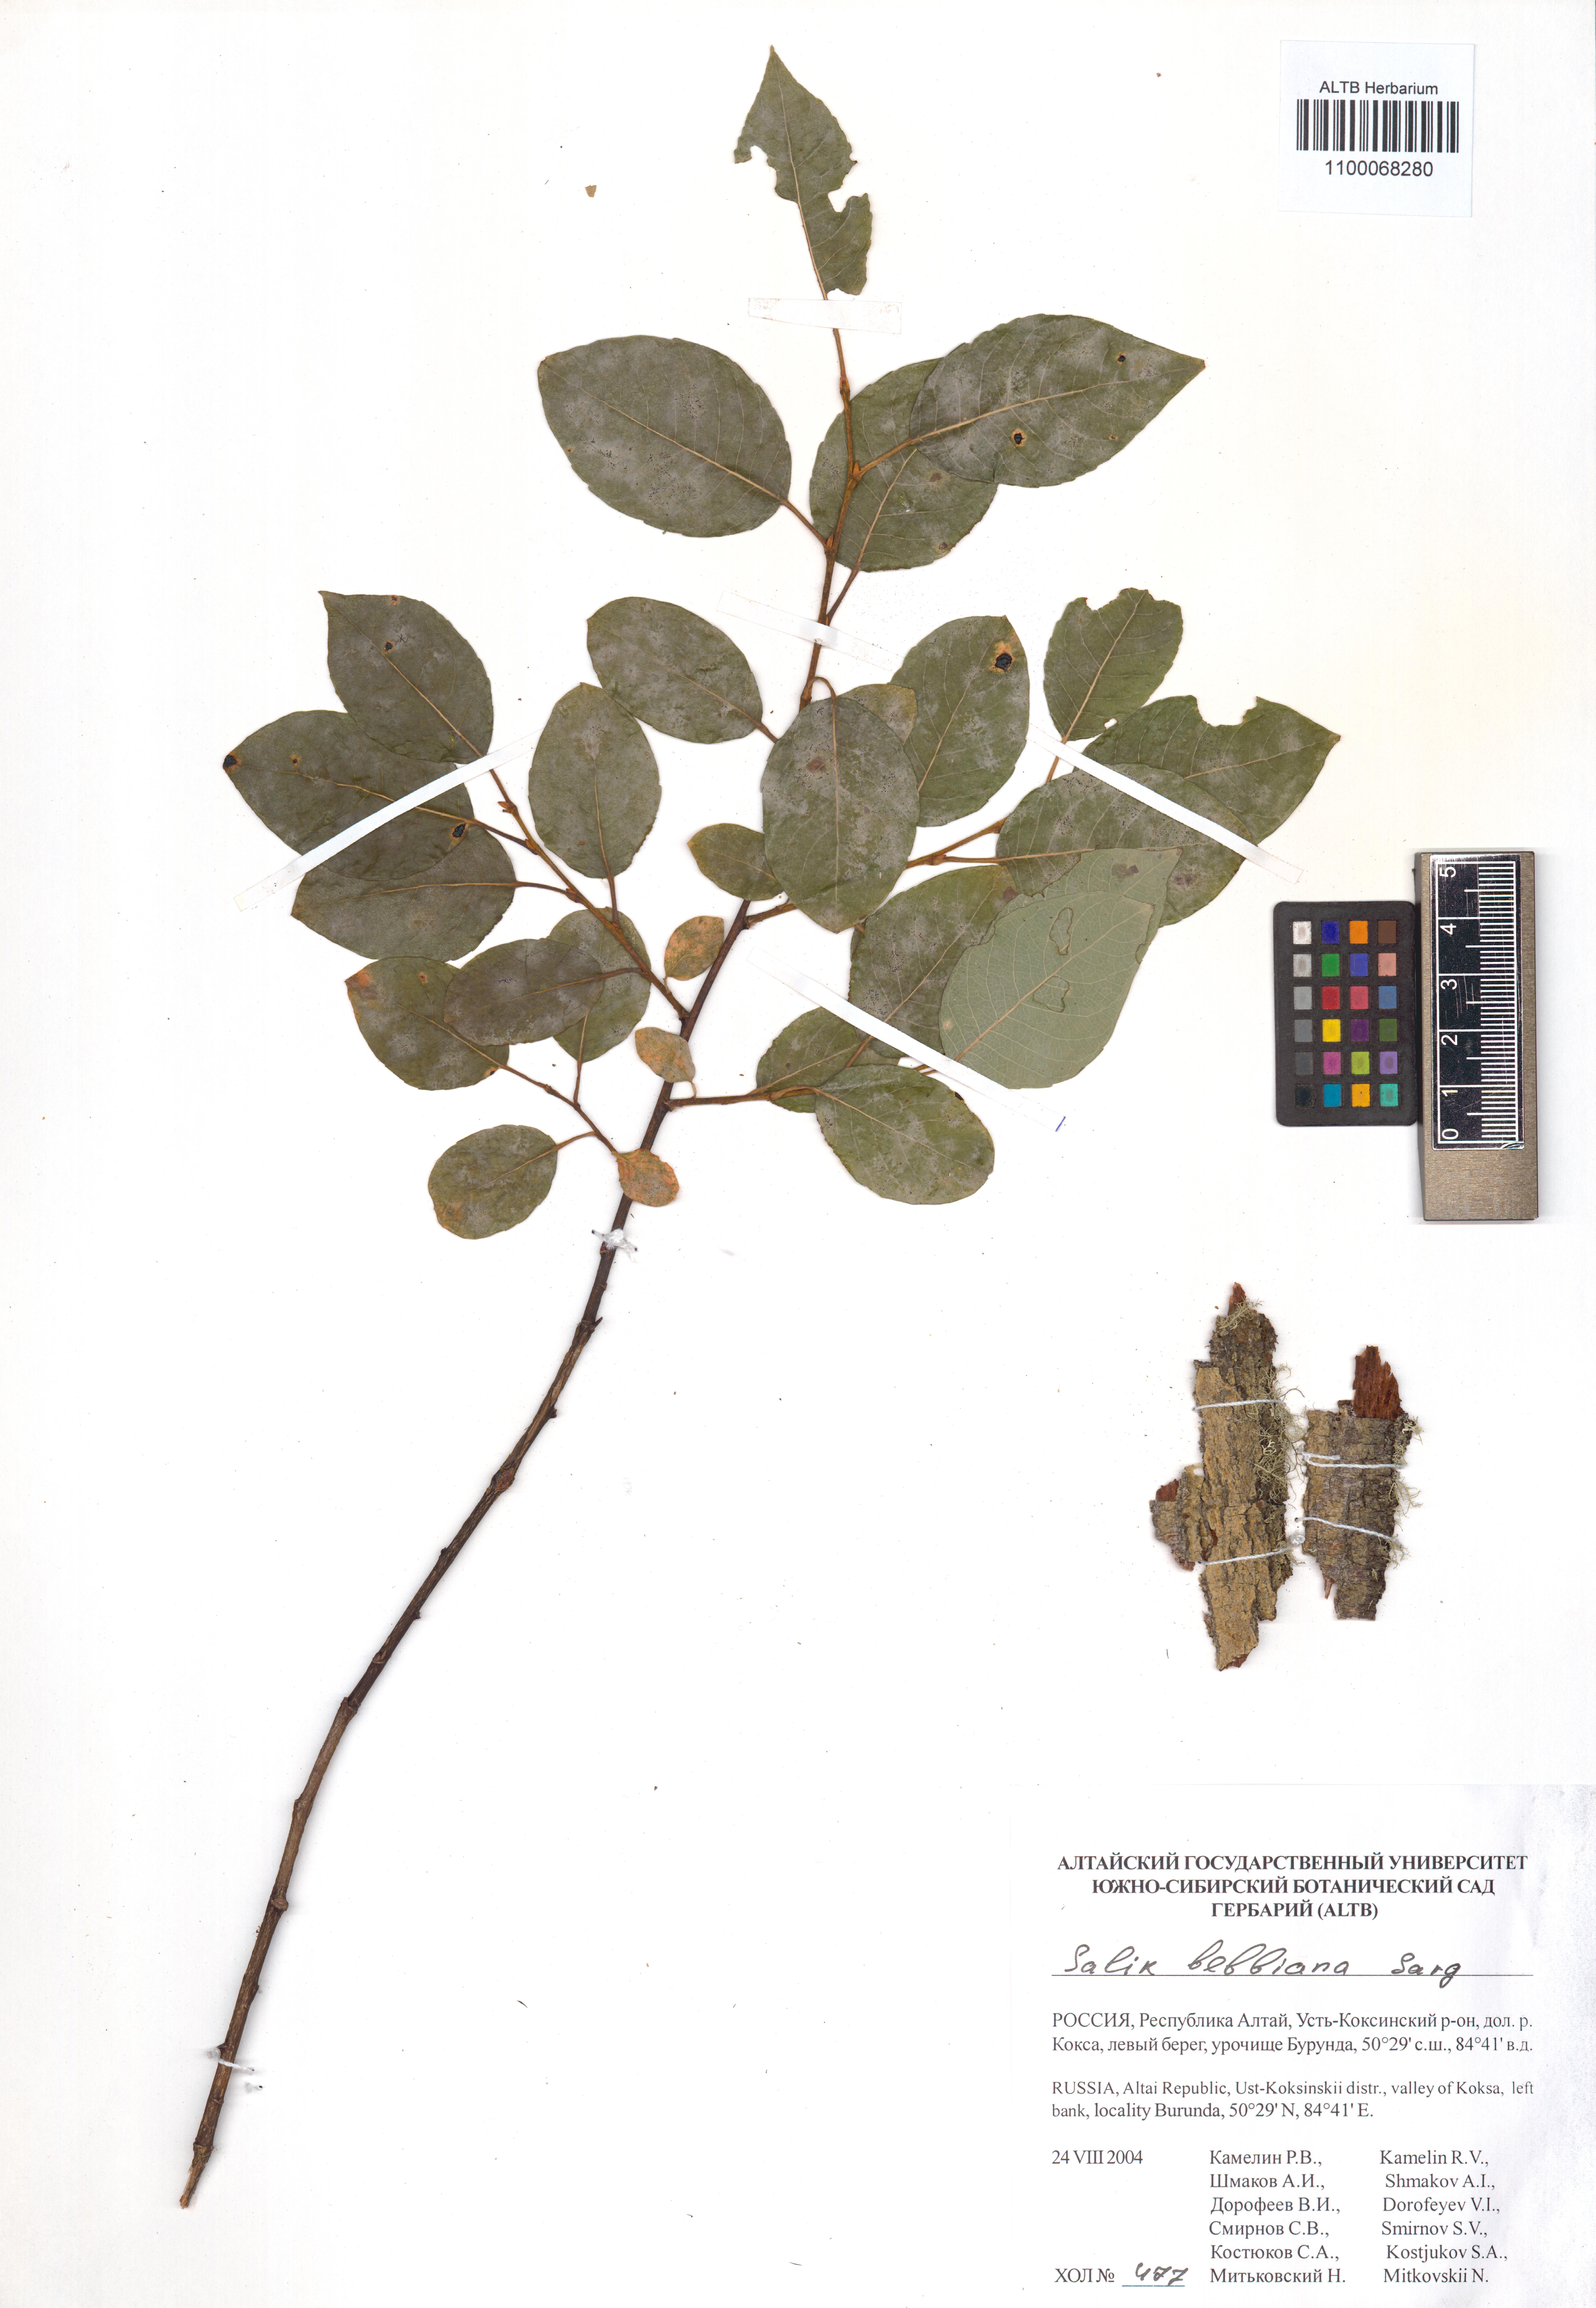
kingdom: Plantae
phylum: Tracheophyta
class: Magnoliopsida
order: Malpighiales
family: Salicaceae
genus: Salix
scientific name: Salix bebbiana
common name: Bebb's willow
